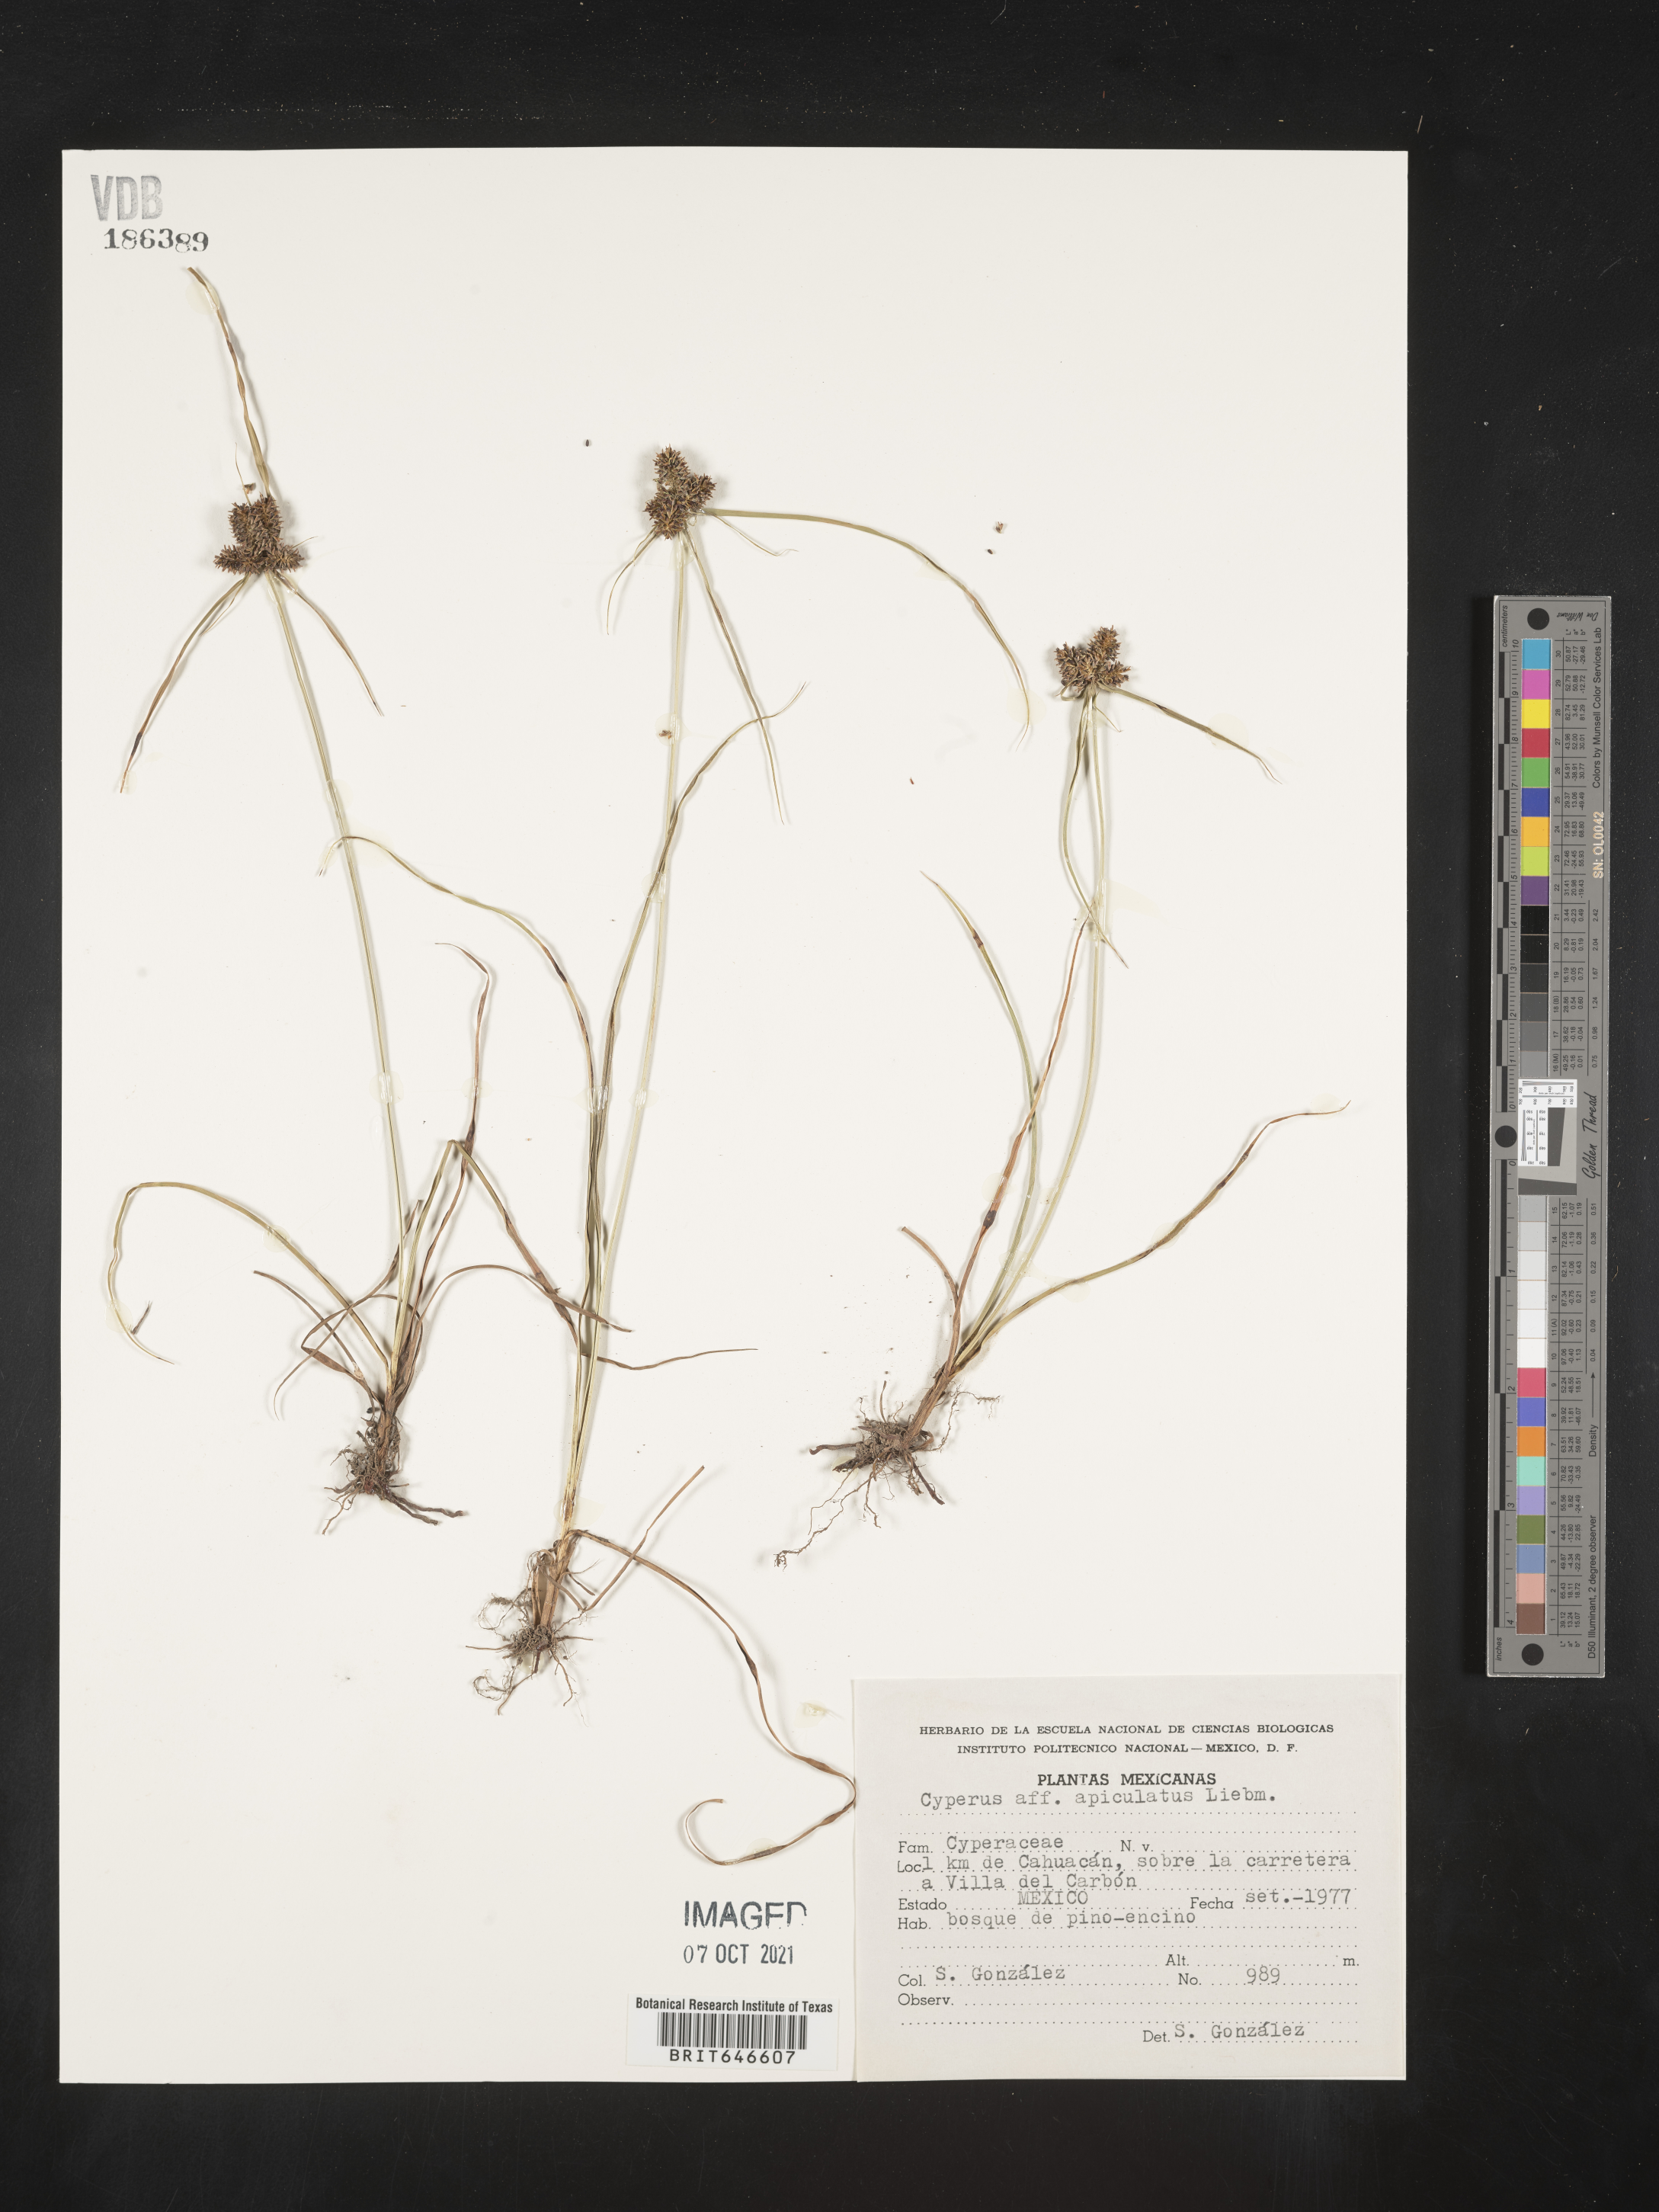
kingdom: Plantae
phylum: Tracheophyta
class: Liliopsida
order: Poales
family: Cyperaceae
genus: Cyperus
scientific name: Cyperus
